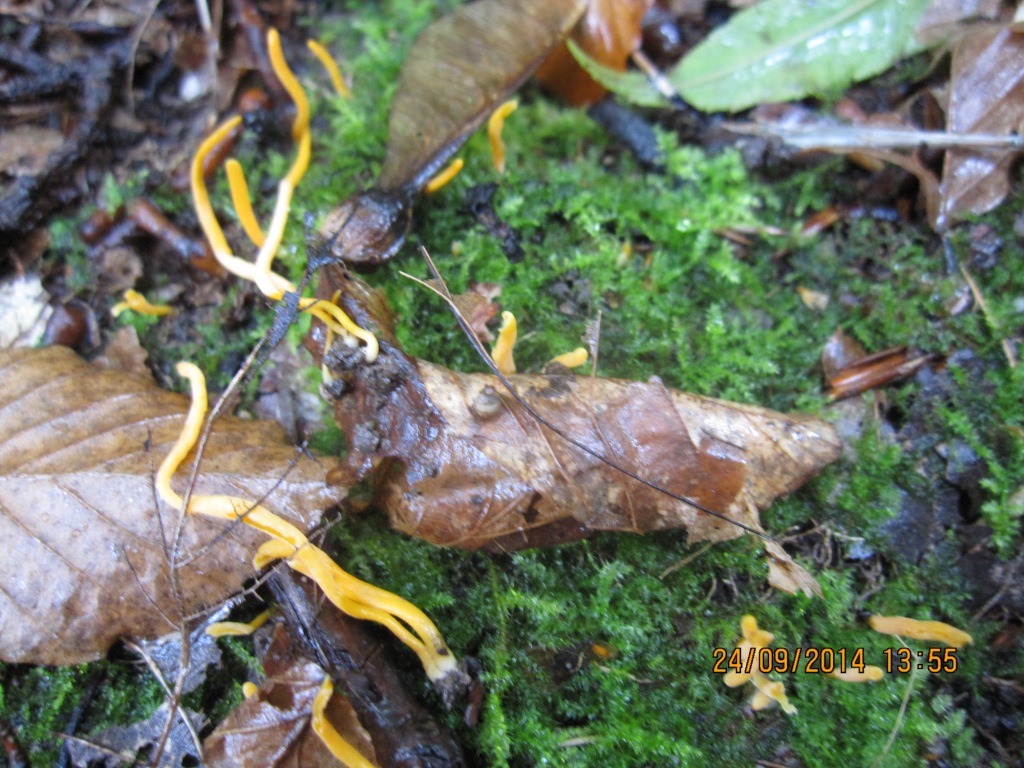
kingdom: Fungi
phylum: Basidiomycota
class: Agaricomycetes
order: Agaricales
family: Clavariaceae
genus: Clavulinopsis
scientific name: Clavulinopsis luteoalba
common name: abrikos-køllesvamp
